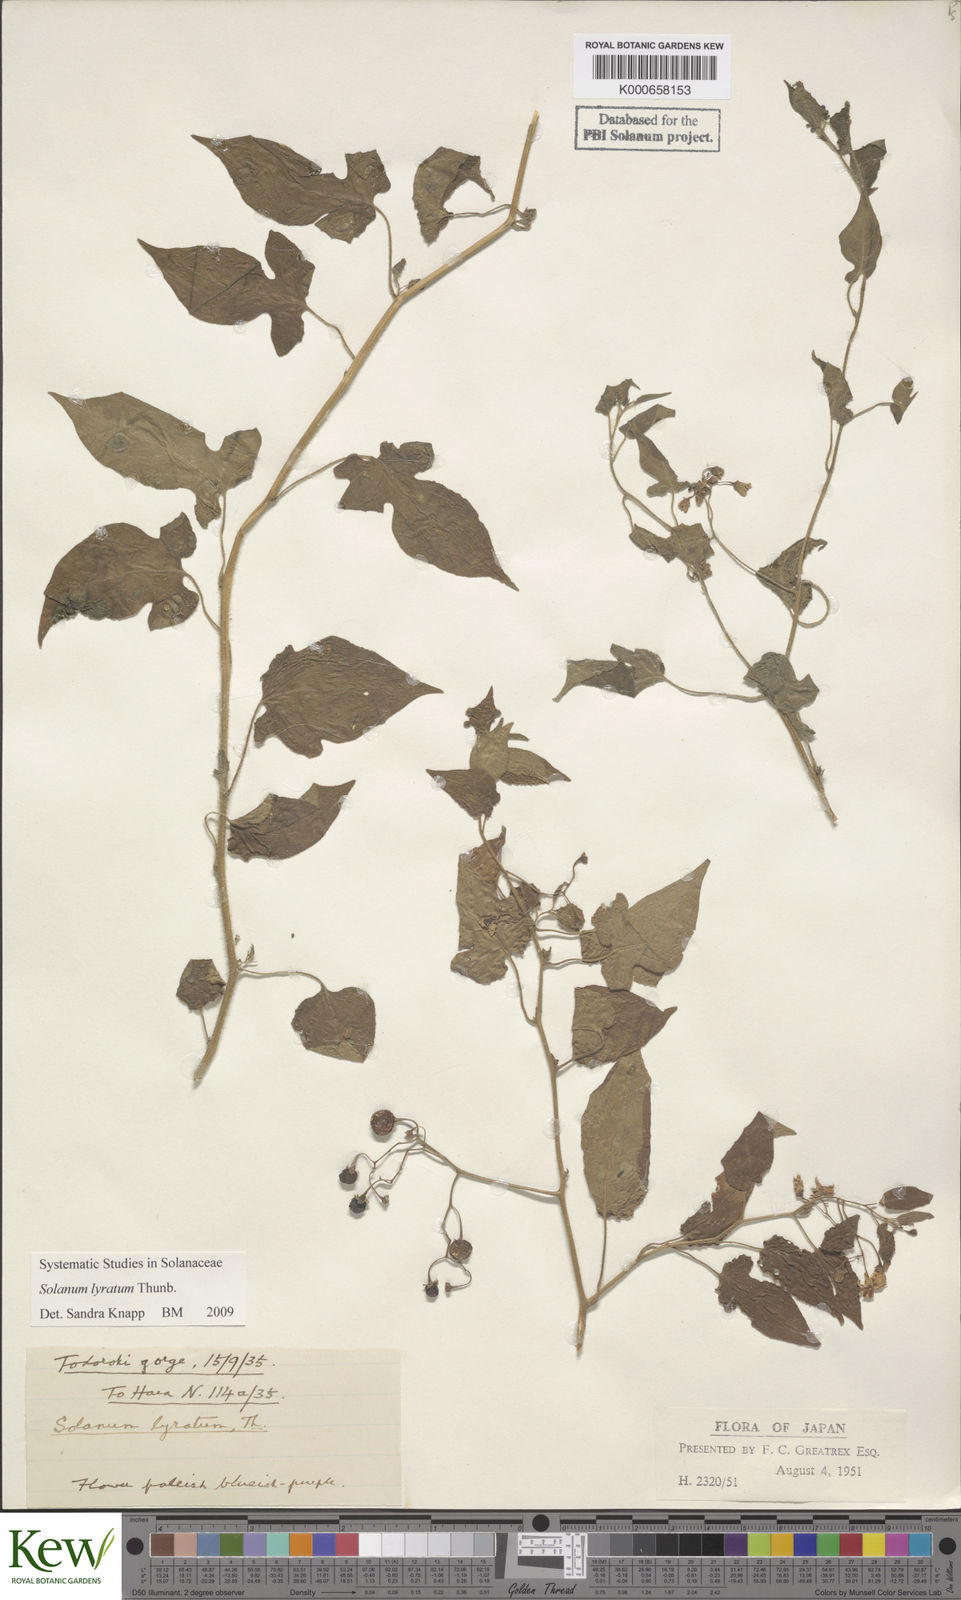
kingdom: Plantae
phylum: Tracheophyta
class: Magnoliopsida
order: Solanales
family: Solanaceae
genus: Solanum
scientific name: Solanum lyratum
